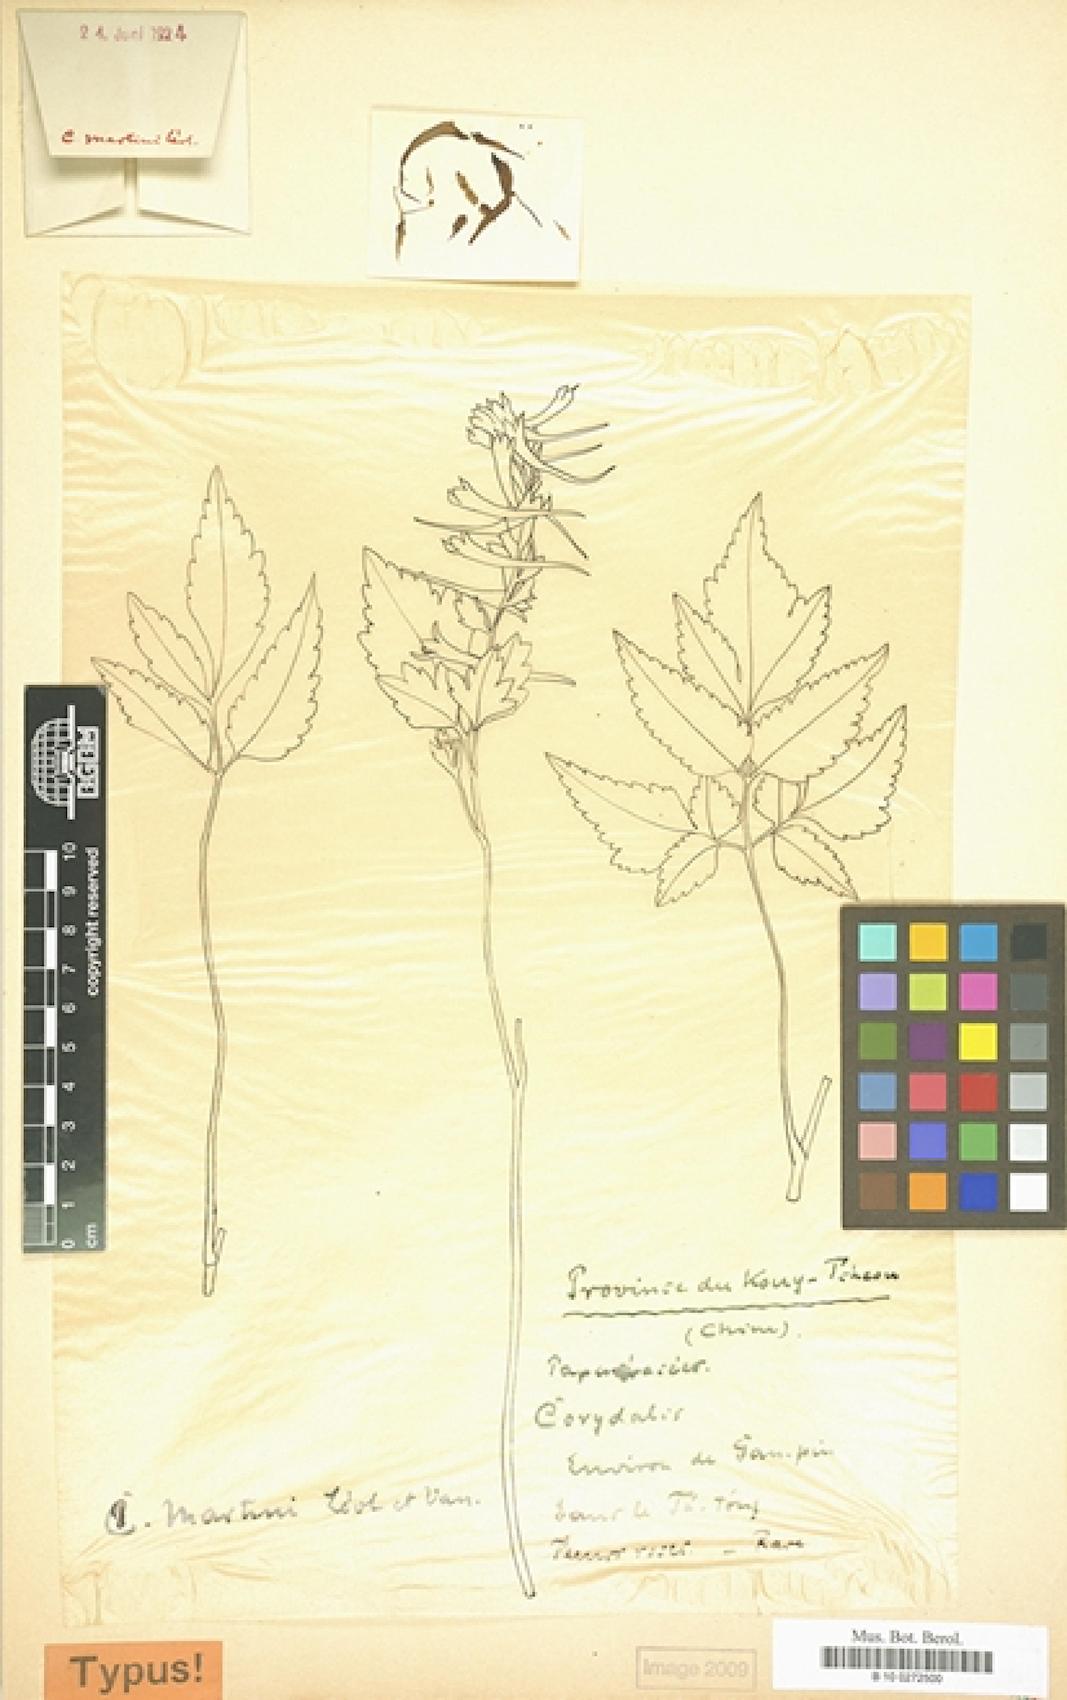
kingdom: Plantae
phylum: Tracheophyta
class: Magnoliopsida
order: Ranunculales
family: Papaveraceae
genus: Corydalis
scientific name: Corydalis temulifolia
